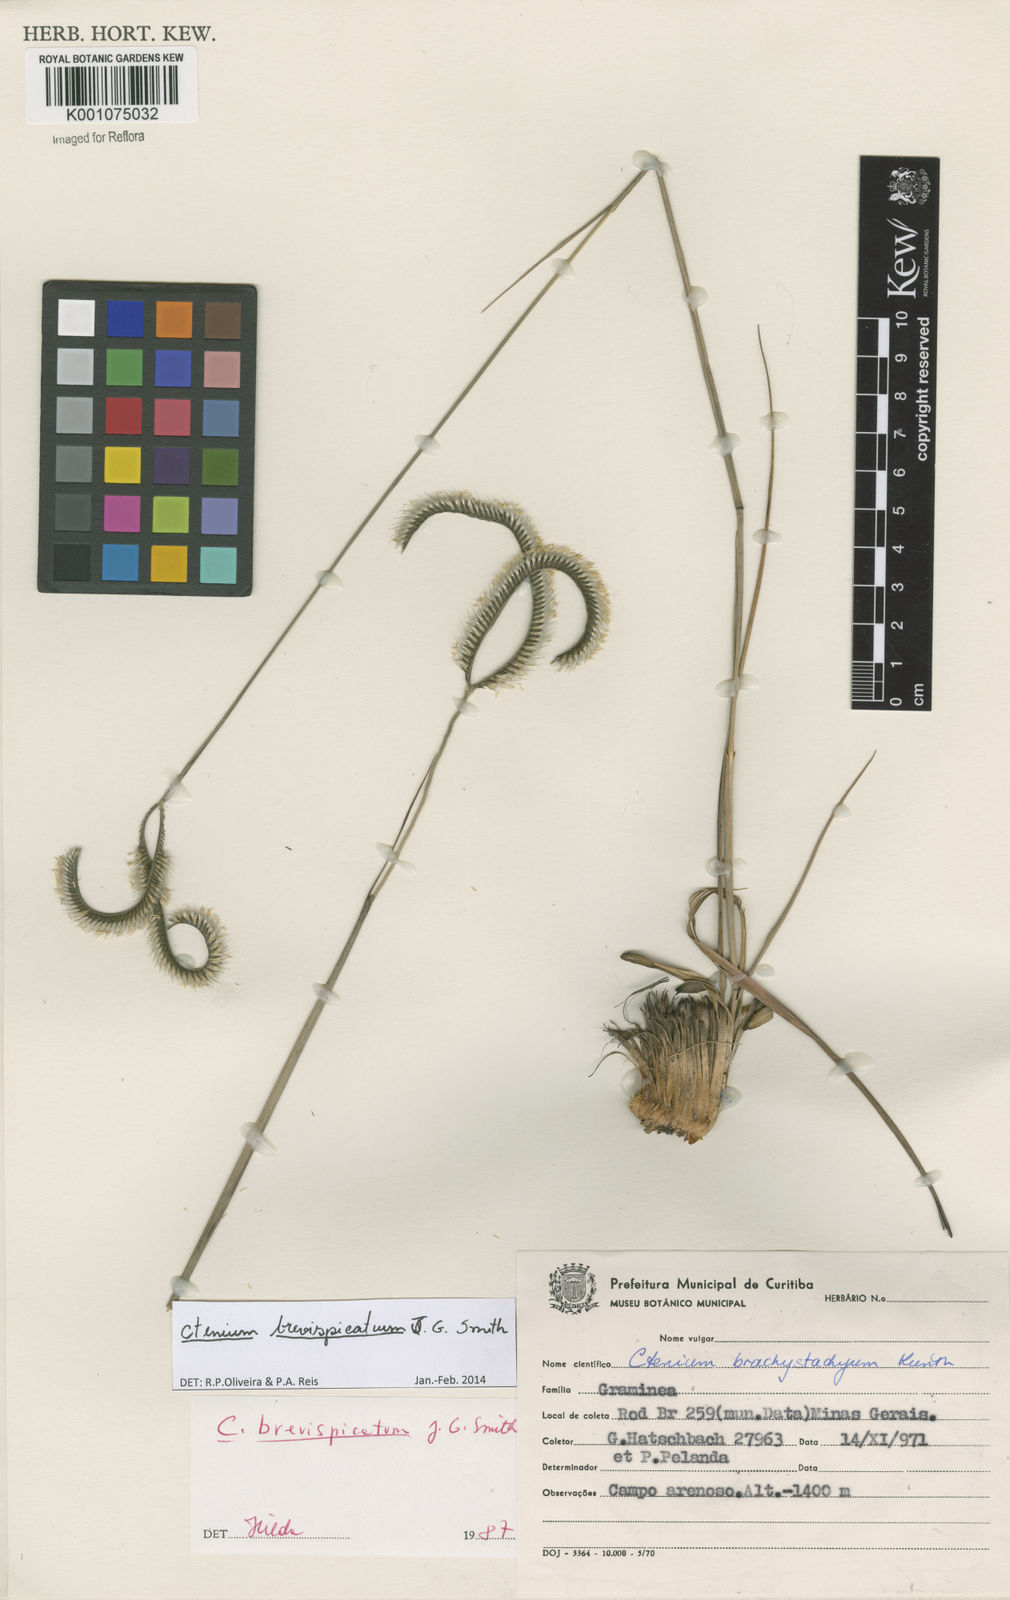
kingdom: Plantae
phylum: Tracheophyta
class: Liliopsida
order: Poales
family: Poaceae
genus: Ctenium
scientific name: Ctenium brevispicatum
